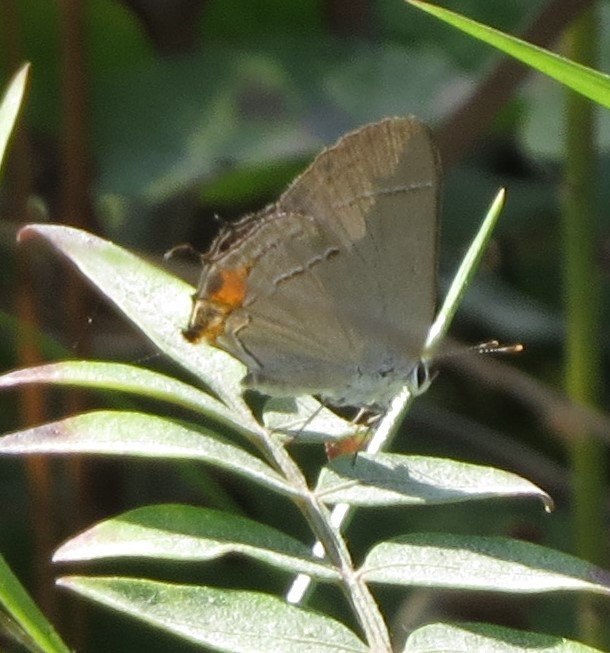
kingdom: Animalia
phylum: Arthropoda
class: Insecta
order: Lepidoptera
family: Lycaenidae
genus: Strymon
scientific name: Strymon melinus
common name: Gray Hairstreak
